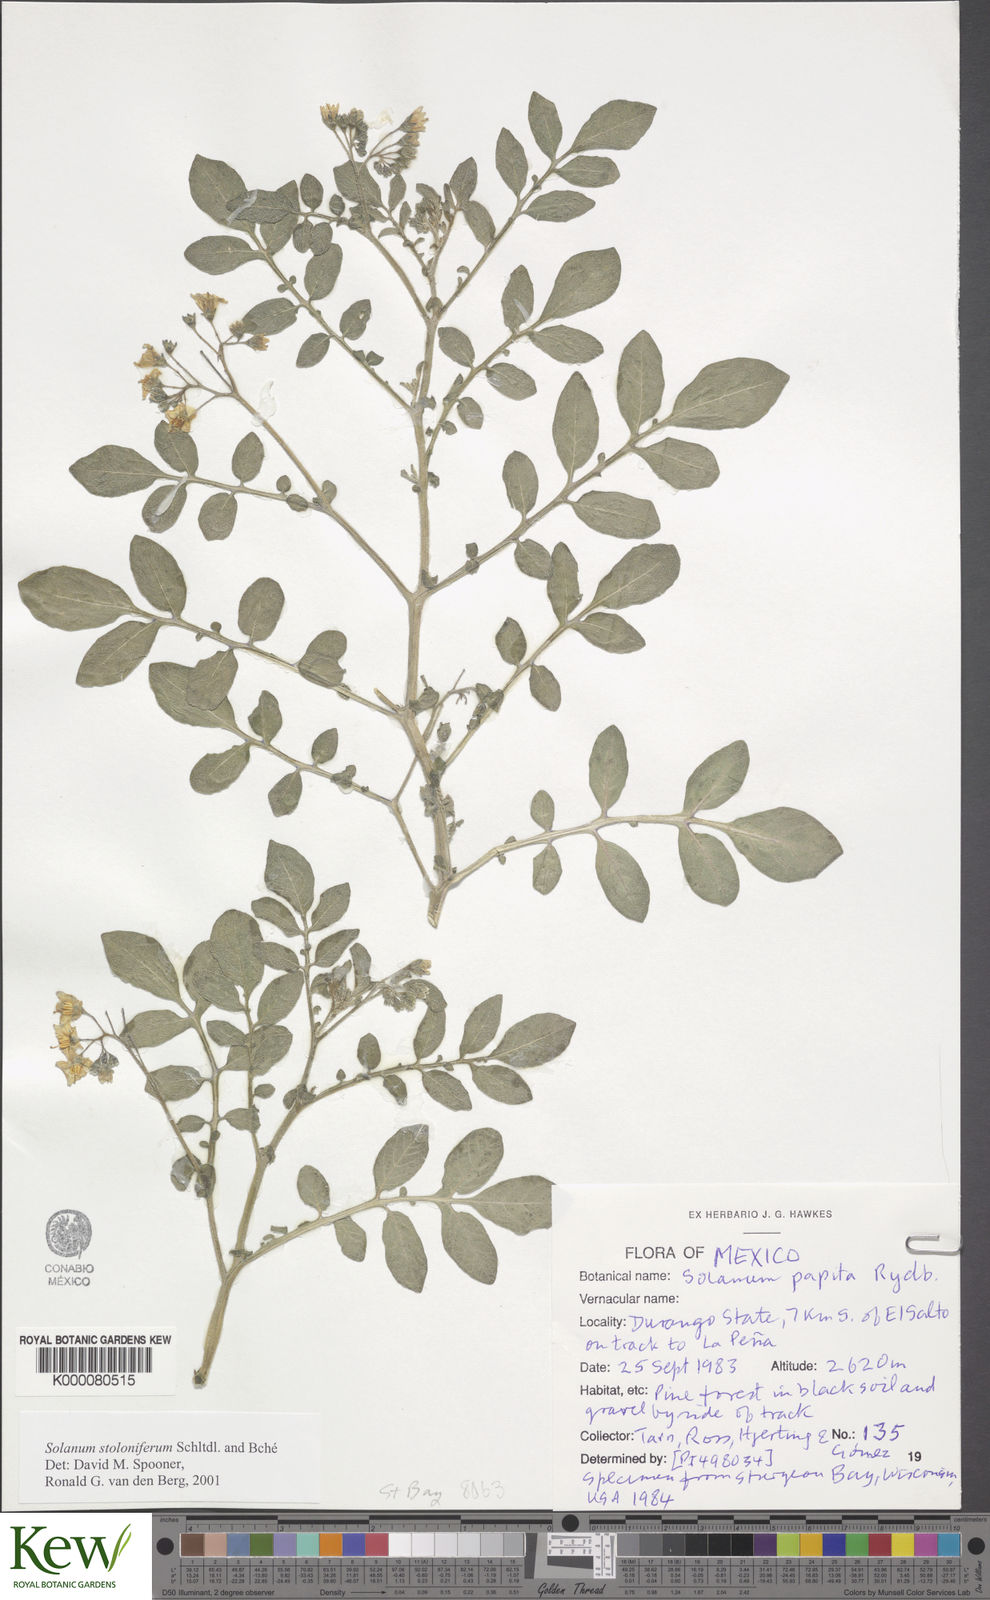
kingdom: Plantae
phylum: Tracheophyta
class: Magnoliopsida
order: Solanales
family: Solanaceae
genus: Solanum
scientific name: Solanum stoloniferum
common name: Fendler's nighshade
